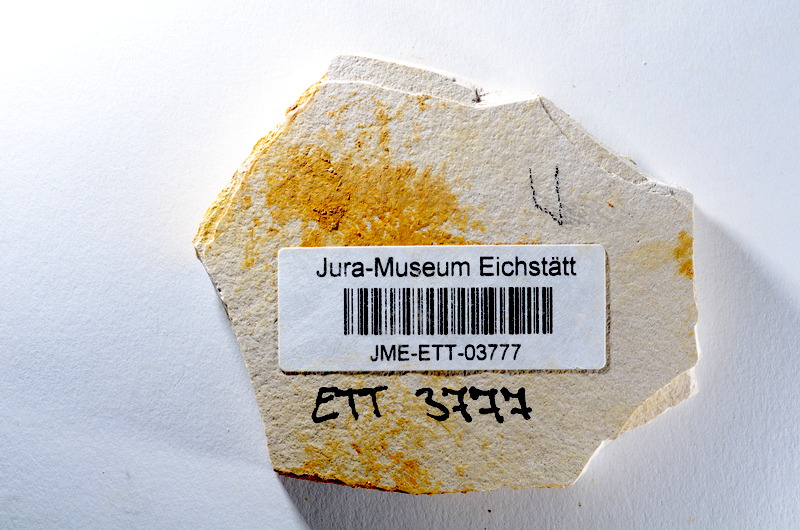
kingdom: Animalia
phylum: Chordata
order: Salmoniformes
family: Orthogonikleithridae
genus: Orthogonikleithrus
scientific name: Orthogonikleithrus hoelli
